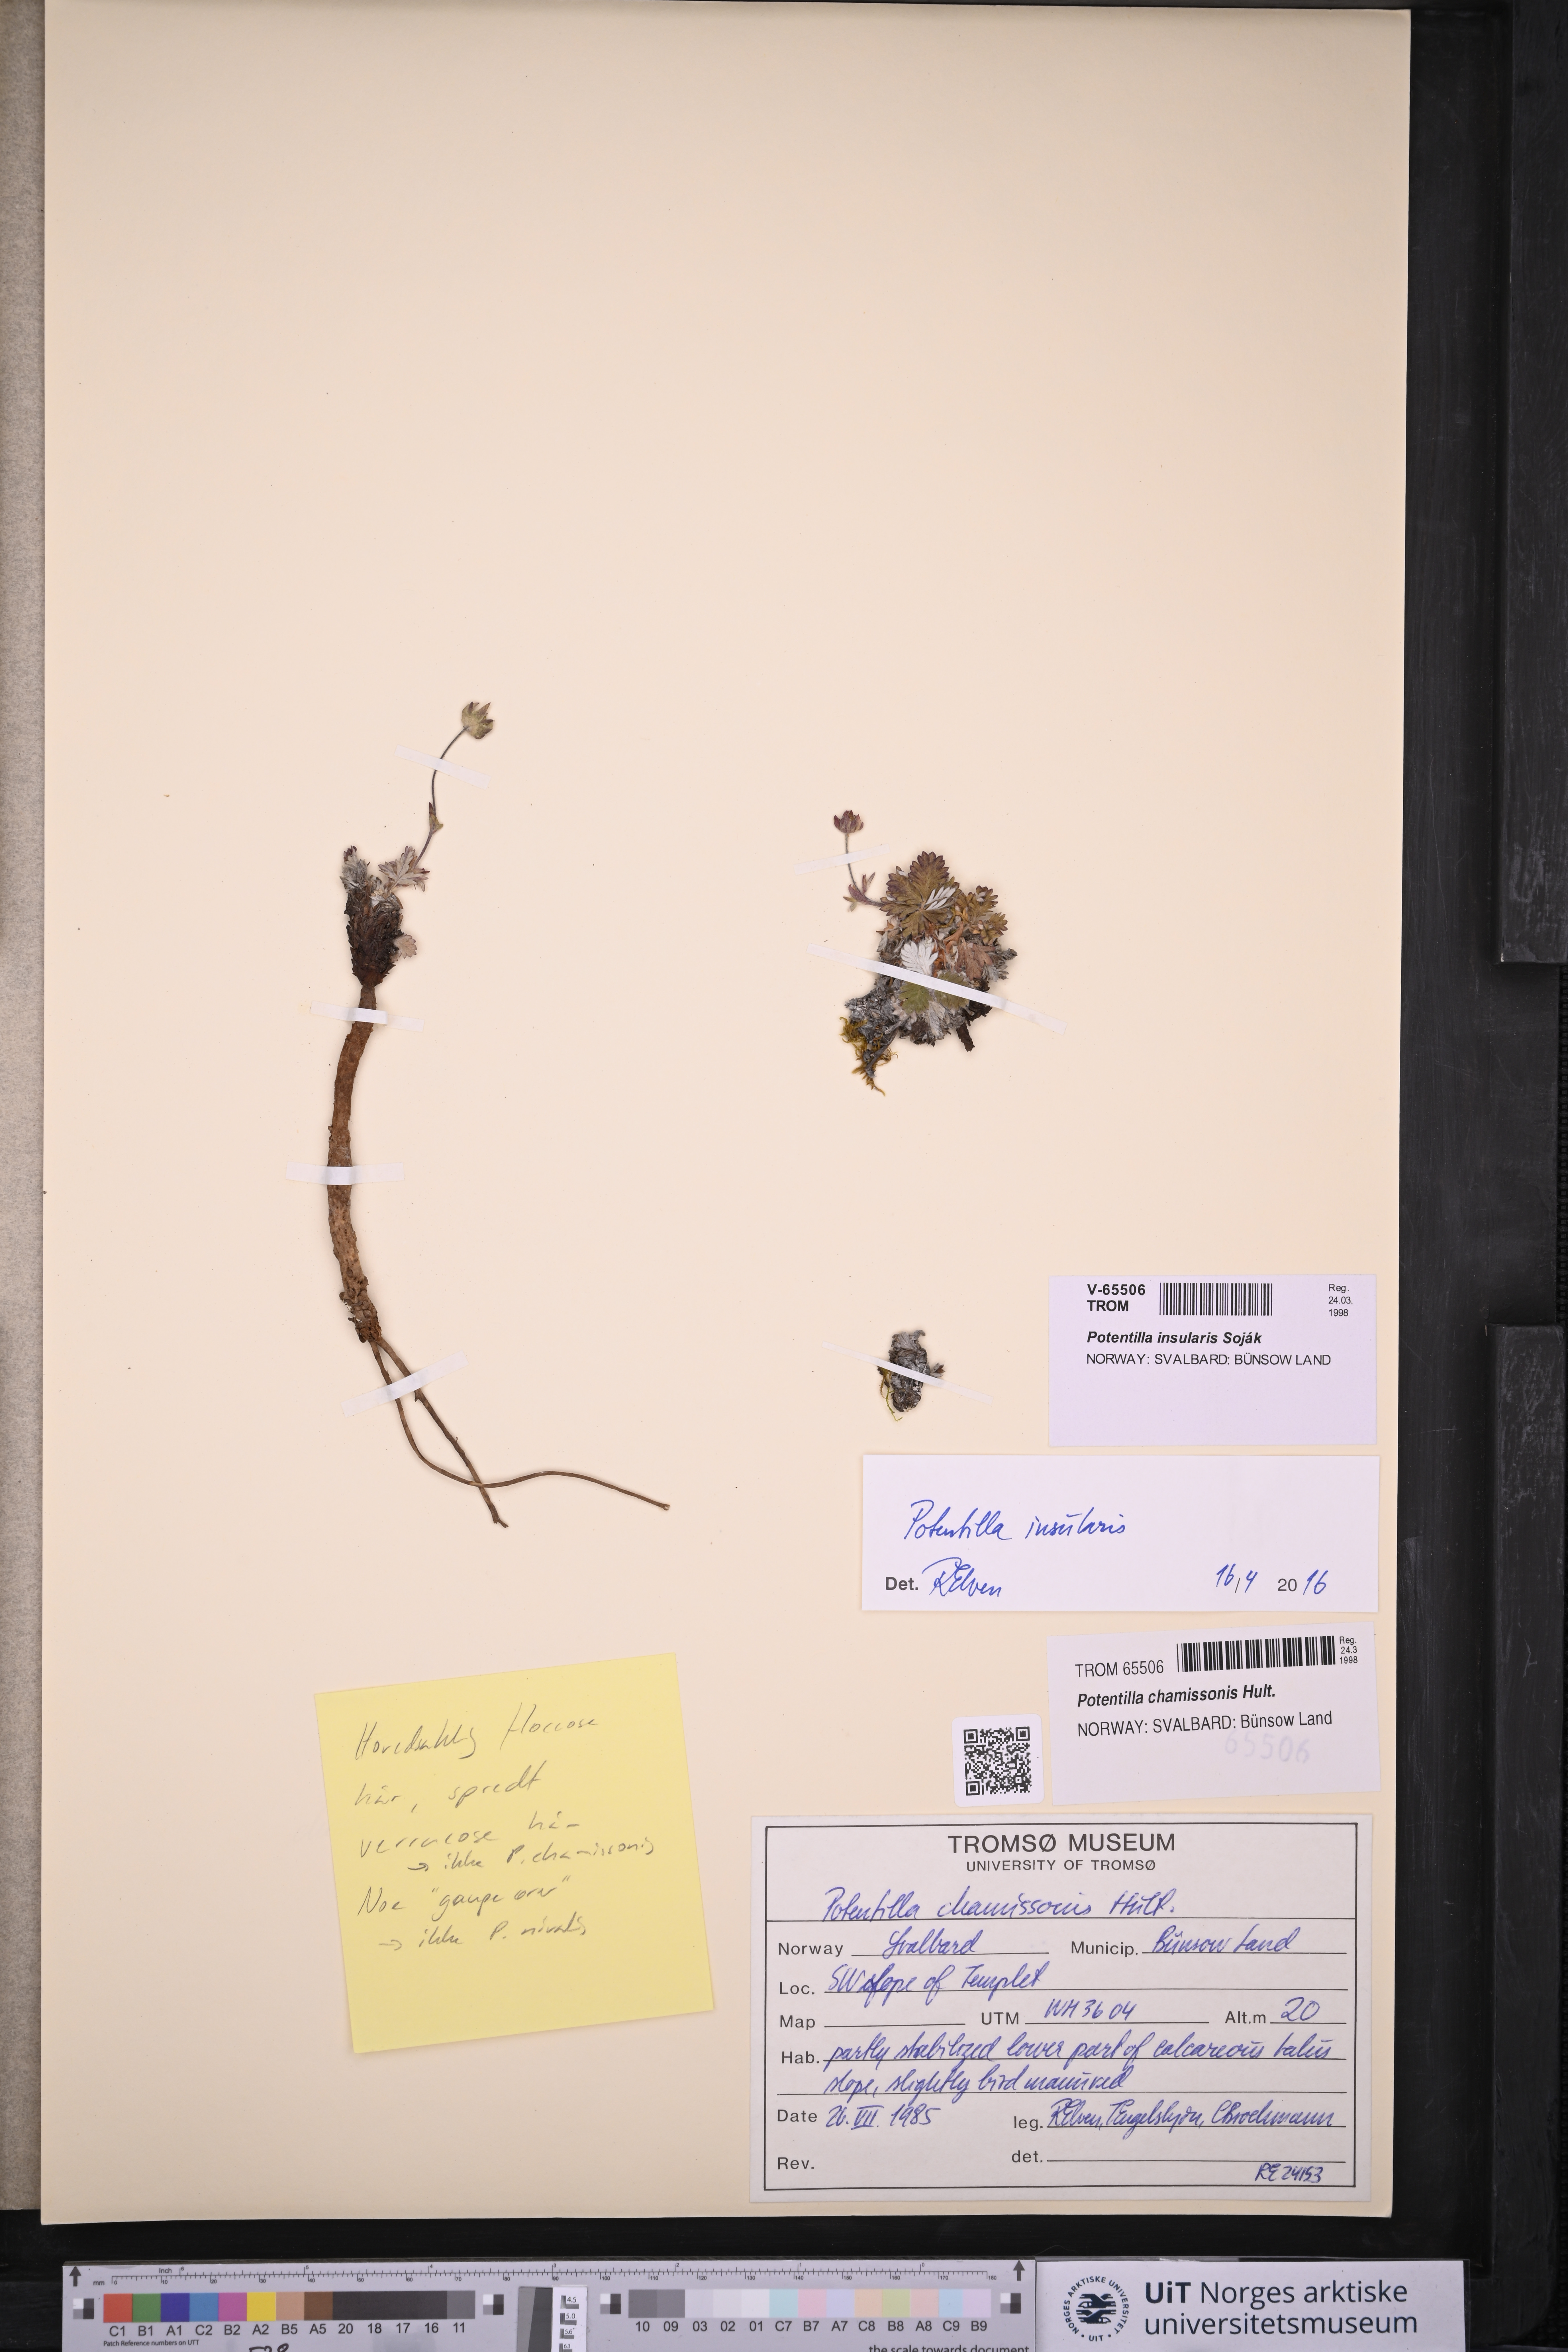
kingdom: Plantae
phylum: Tracheophyta
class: Magnoliopsida
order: Rosales
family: Rosaceae
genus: Potentilla
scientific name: Potentilla insularis
